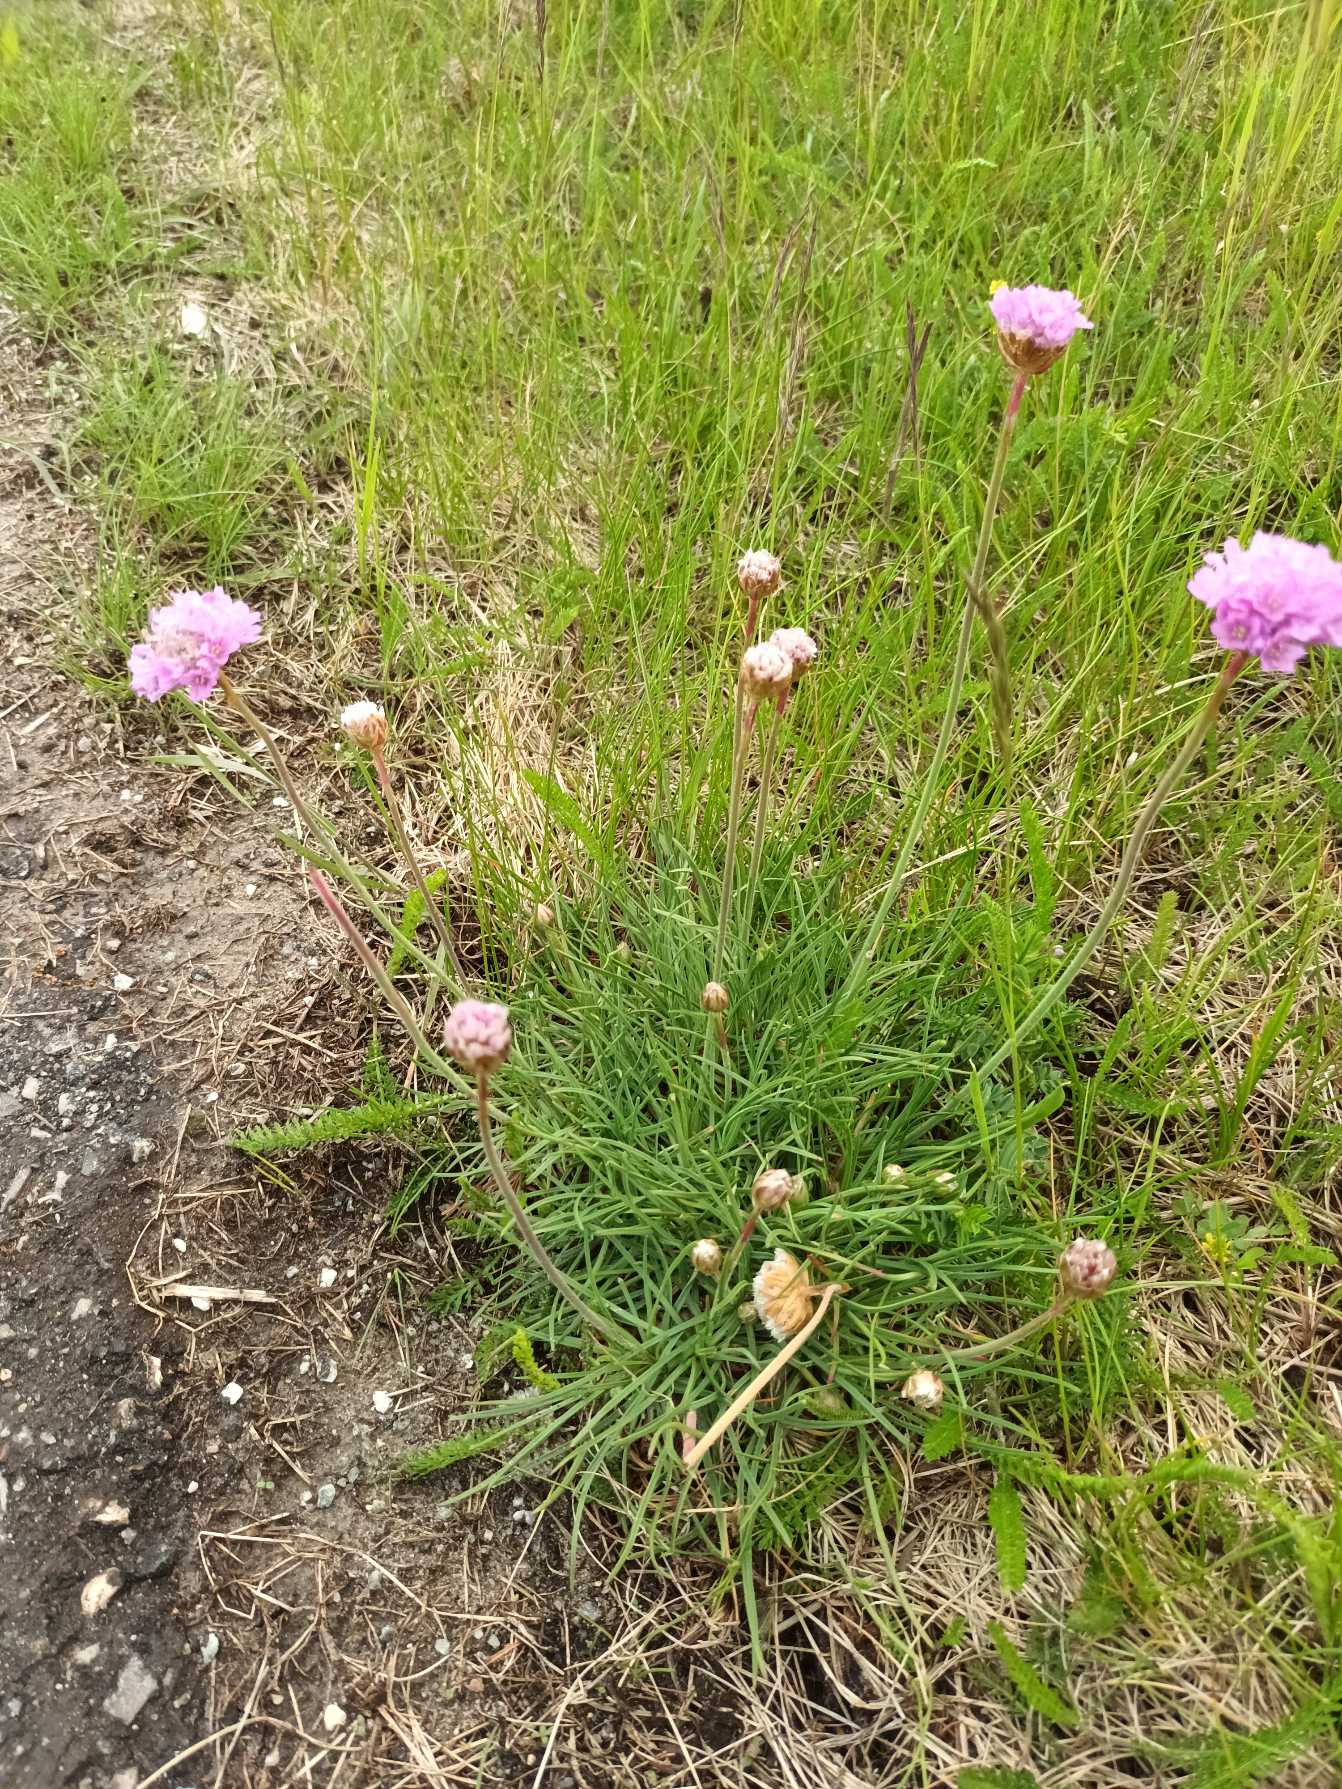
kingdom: Plantae
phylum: Tracheophyta
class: Magnoliopsida
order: Caryophyllales
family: Plumbaginaceae
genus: Armeria
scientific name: Armeria maritima
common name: Engelskgræs
